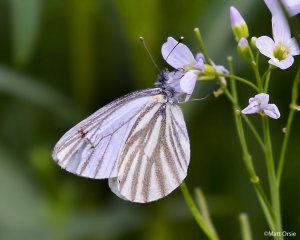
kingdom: Animalia
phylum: Arthropoda
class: Insecta
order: Lepidoptera
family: Pieridae
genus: Pieris
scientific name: Pieris oleracea
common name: Mustard White
